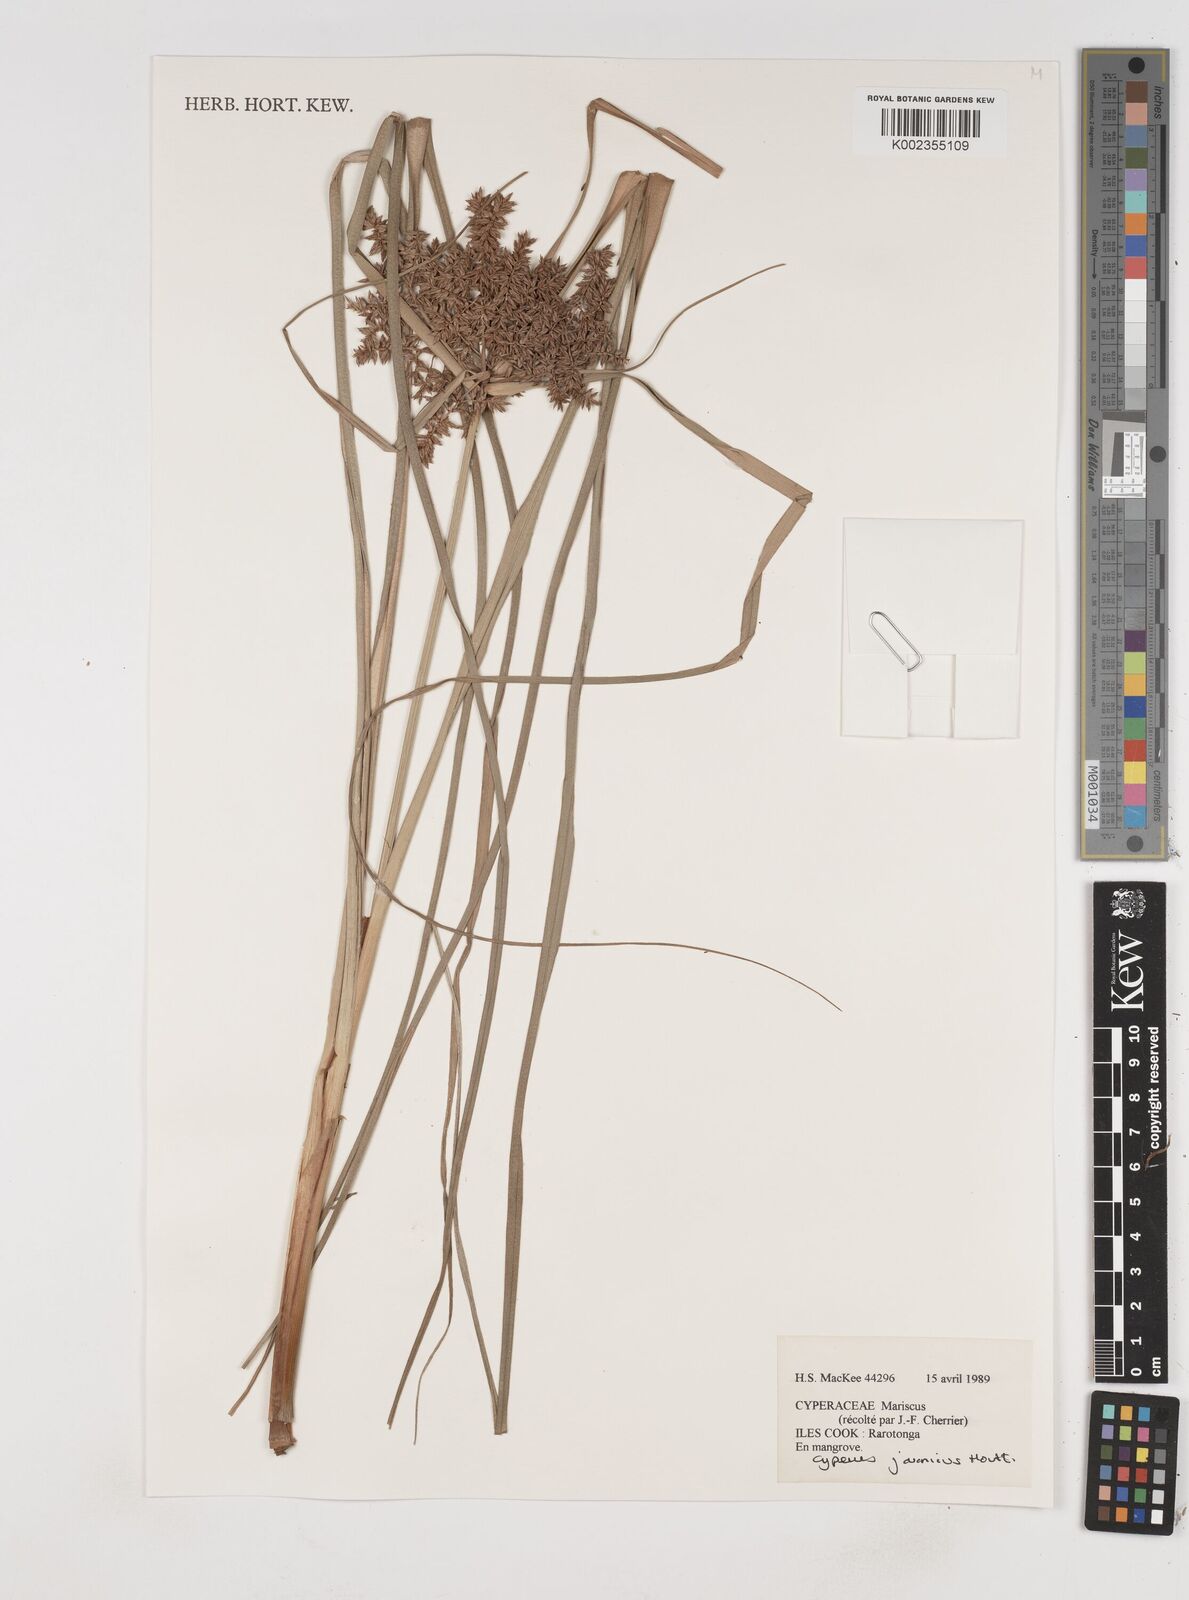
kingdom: Plantae
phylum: Tracheophyta
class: Liliopsida
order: Poales
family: Cyperaceae
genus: Cyperus
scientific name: Cyperus javanicus
